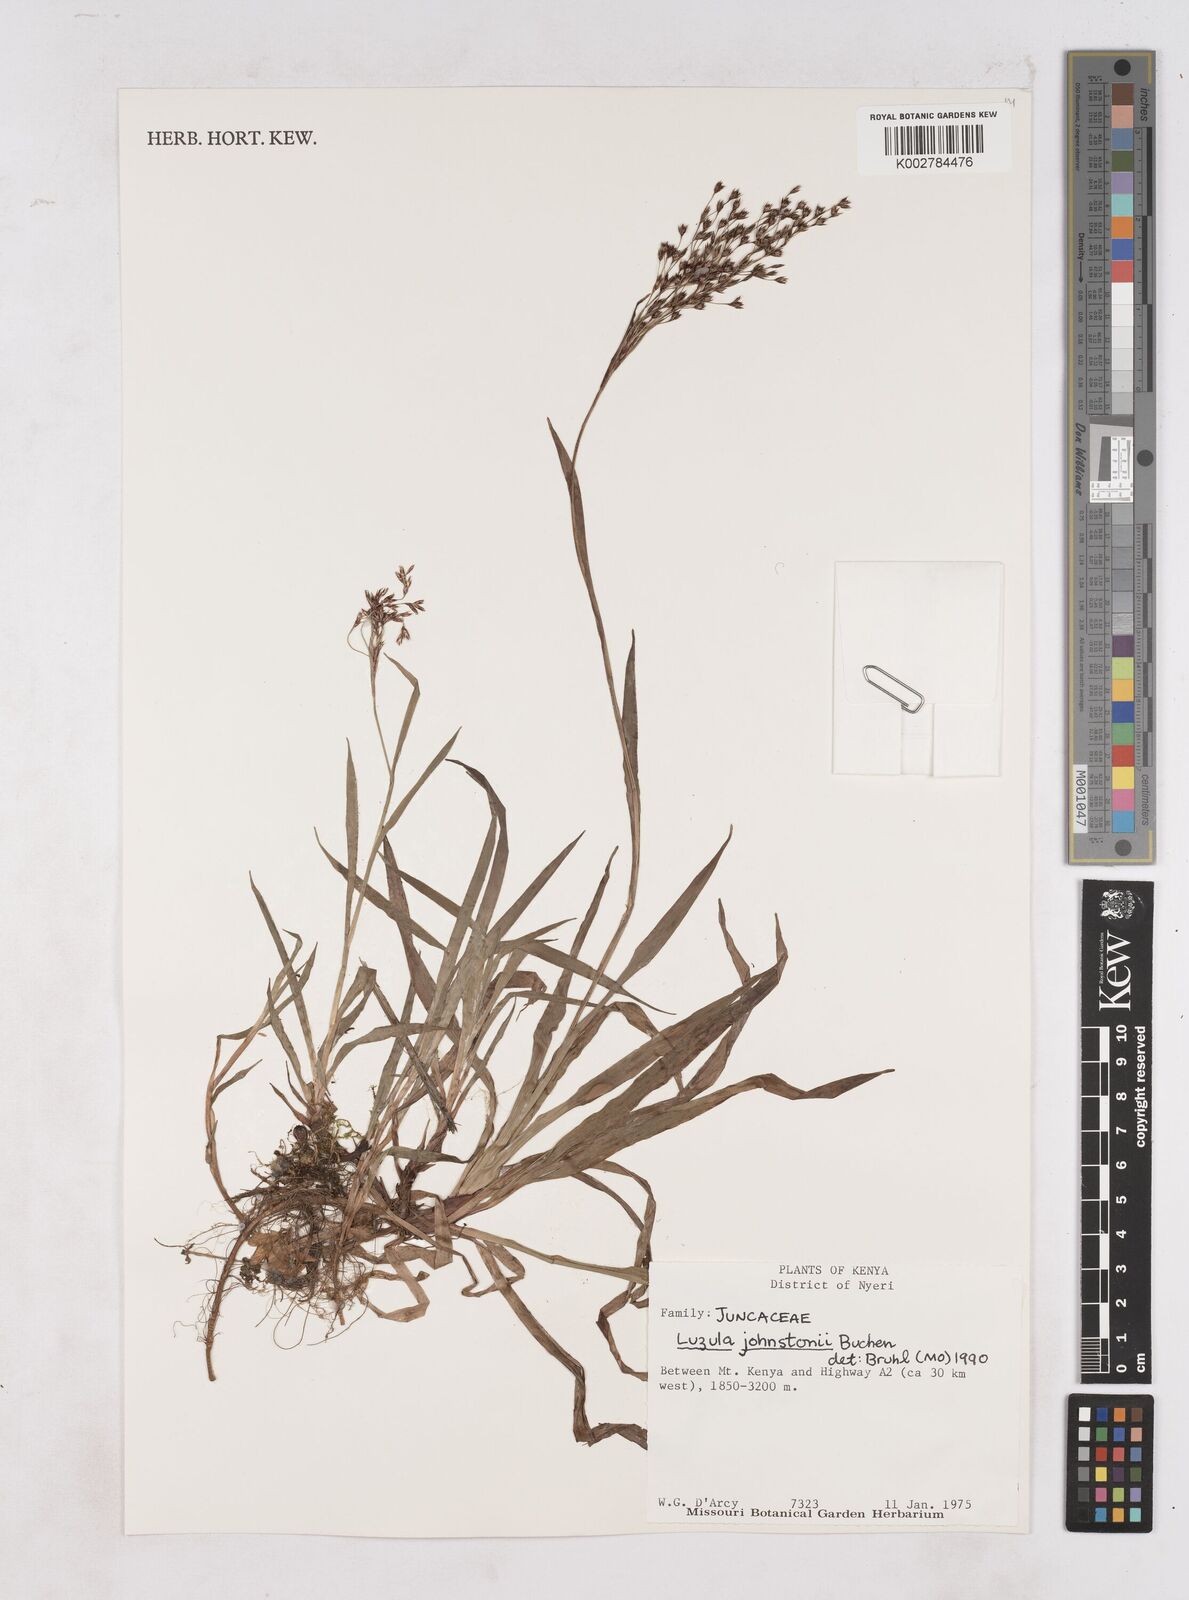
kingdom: Plantae
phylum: Tracheophyta
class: Liliopsida
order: Poales
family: Juncaceae
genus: Luzula
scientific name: Luzula johnstonii
